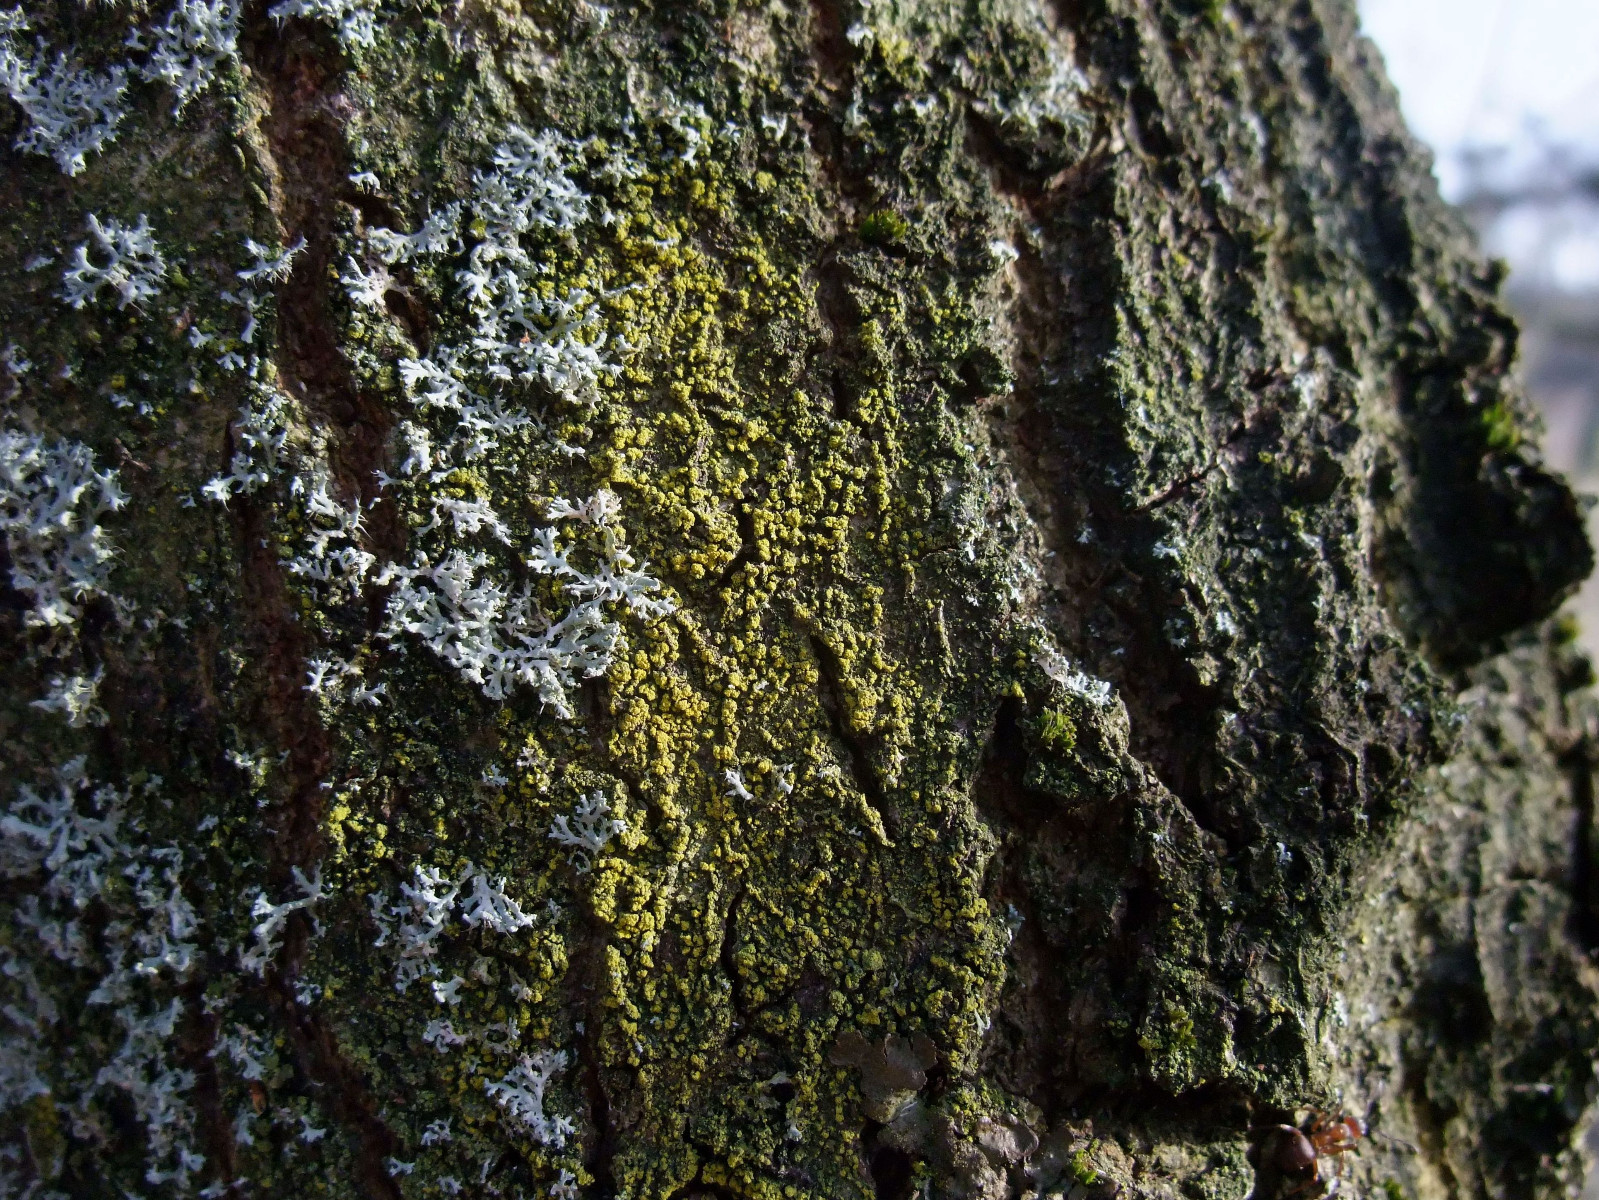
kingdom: Fungi
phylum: Ascomycota
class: Candelariomycetes
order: Candelariales
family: Candelariaceae
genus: Candelariella
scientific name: Candelariella reflexa
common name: grynskællet æggeblommelav
